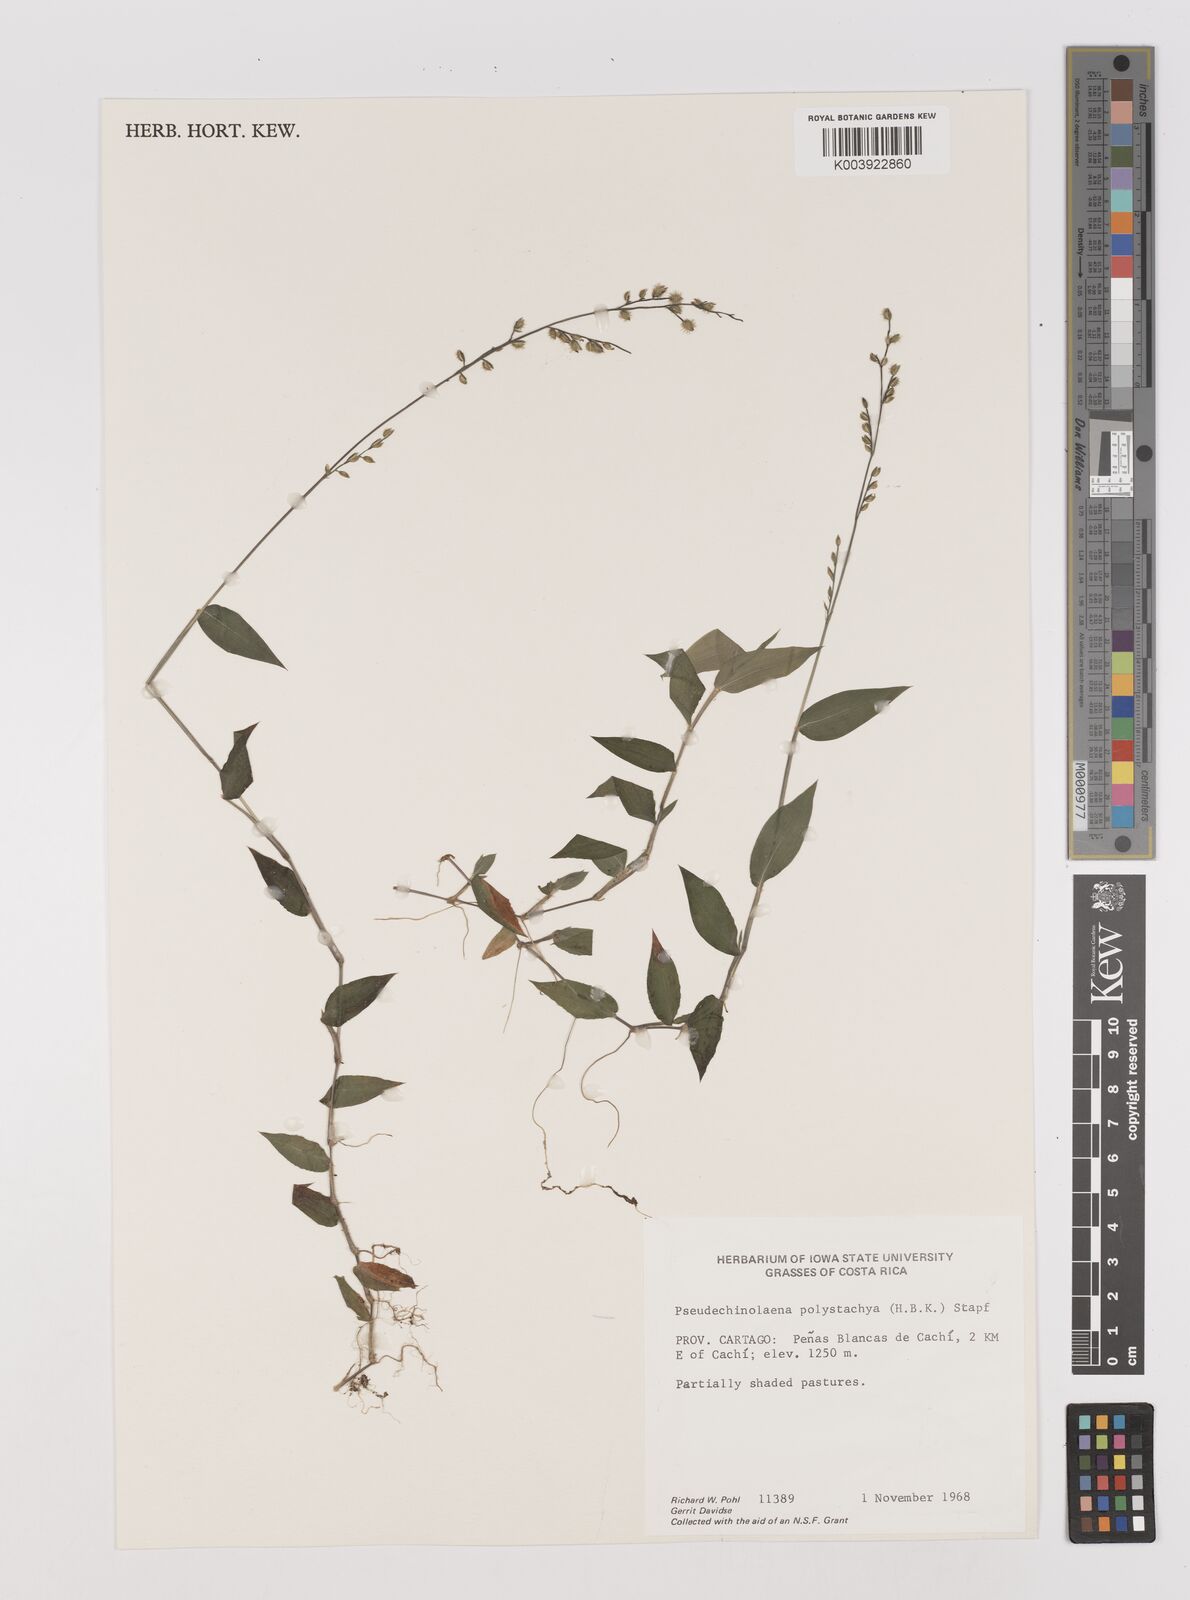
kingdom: Plantae
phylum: Tracheophyta
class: Liliopsida
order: Poales
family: Poaceae
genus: Pseudechinolaena
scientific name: Pseudechinolaena polystachya
